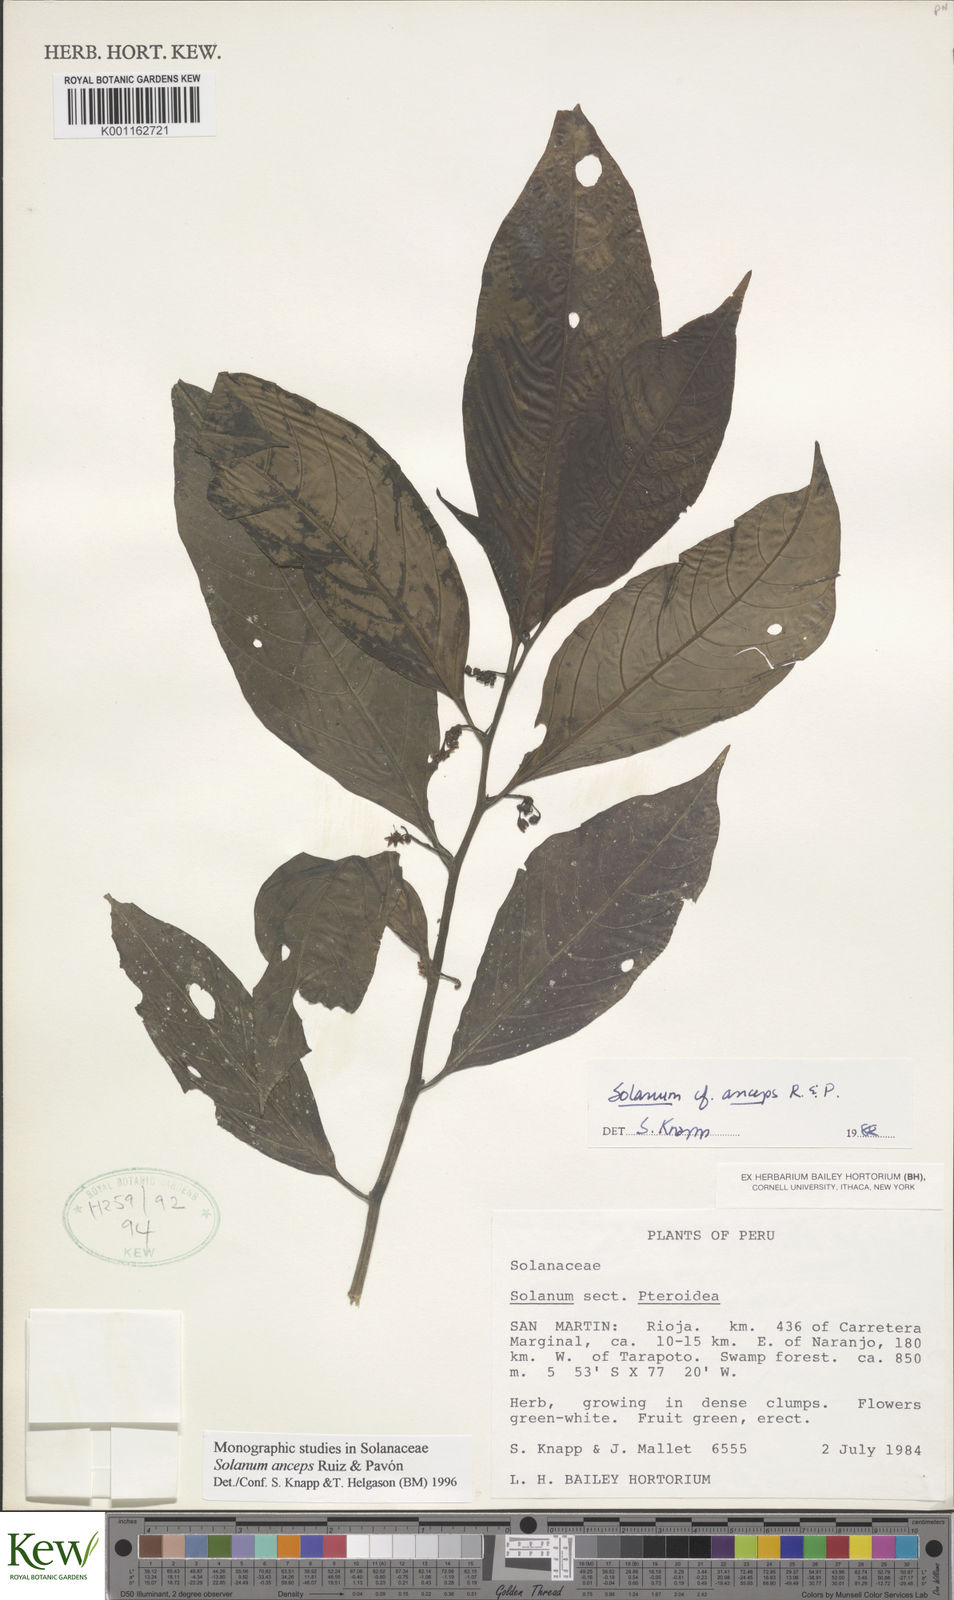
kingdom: Plantae
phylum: Tracheophyta
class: Magnoliopsida
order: Solanales
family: Solanaceae
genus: Solanum
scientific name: Solanum anceps
